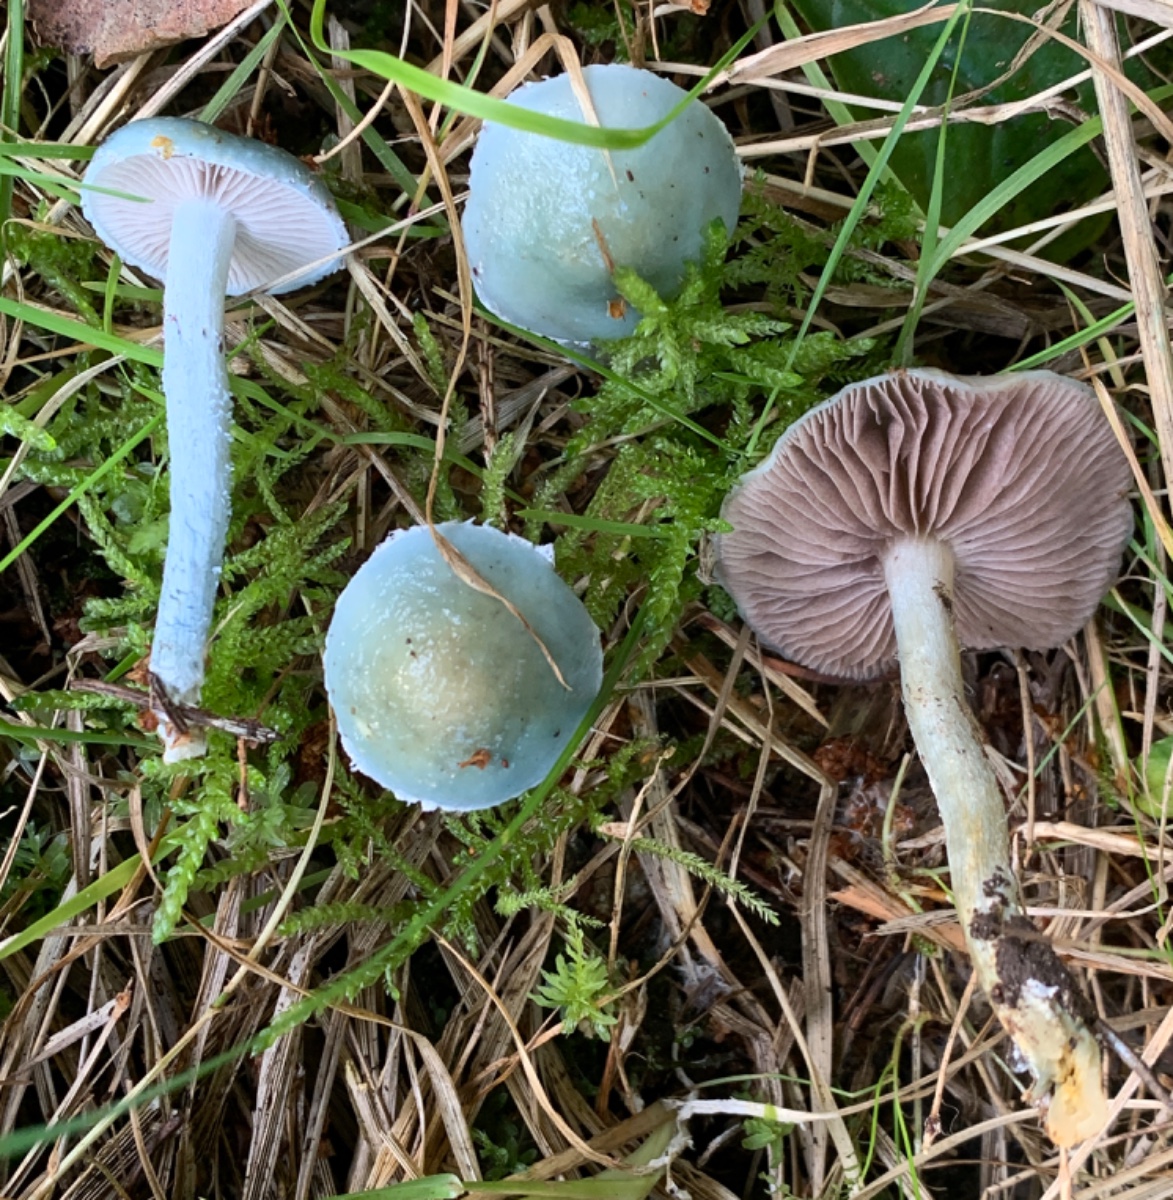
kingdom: Fungi
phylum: Basidiomycota
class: Agaricomycetes
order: Agaricales
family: Strophariaceae
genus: Stropharia
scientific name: Stropharia cyanea
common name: blågrøn bredblad
